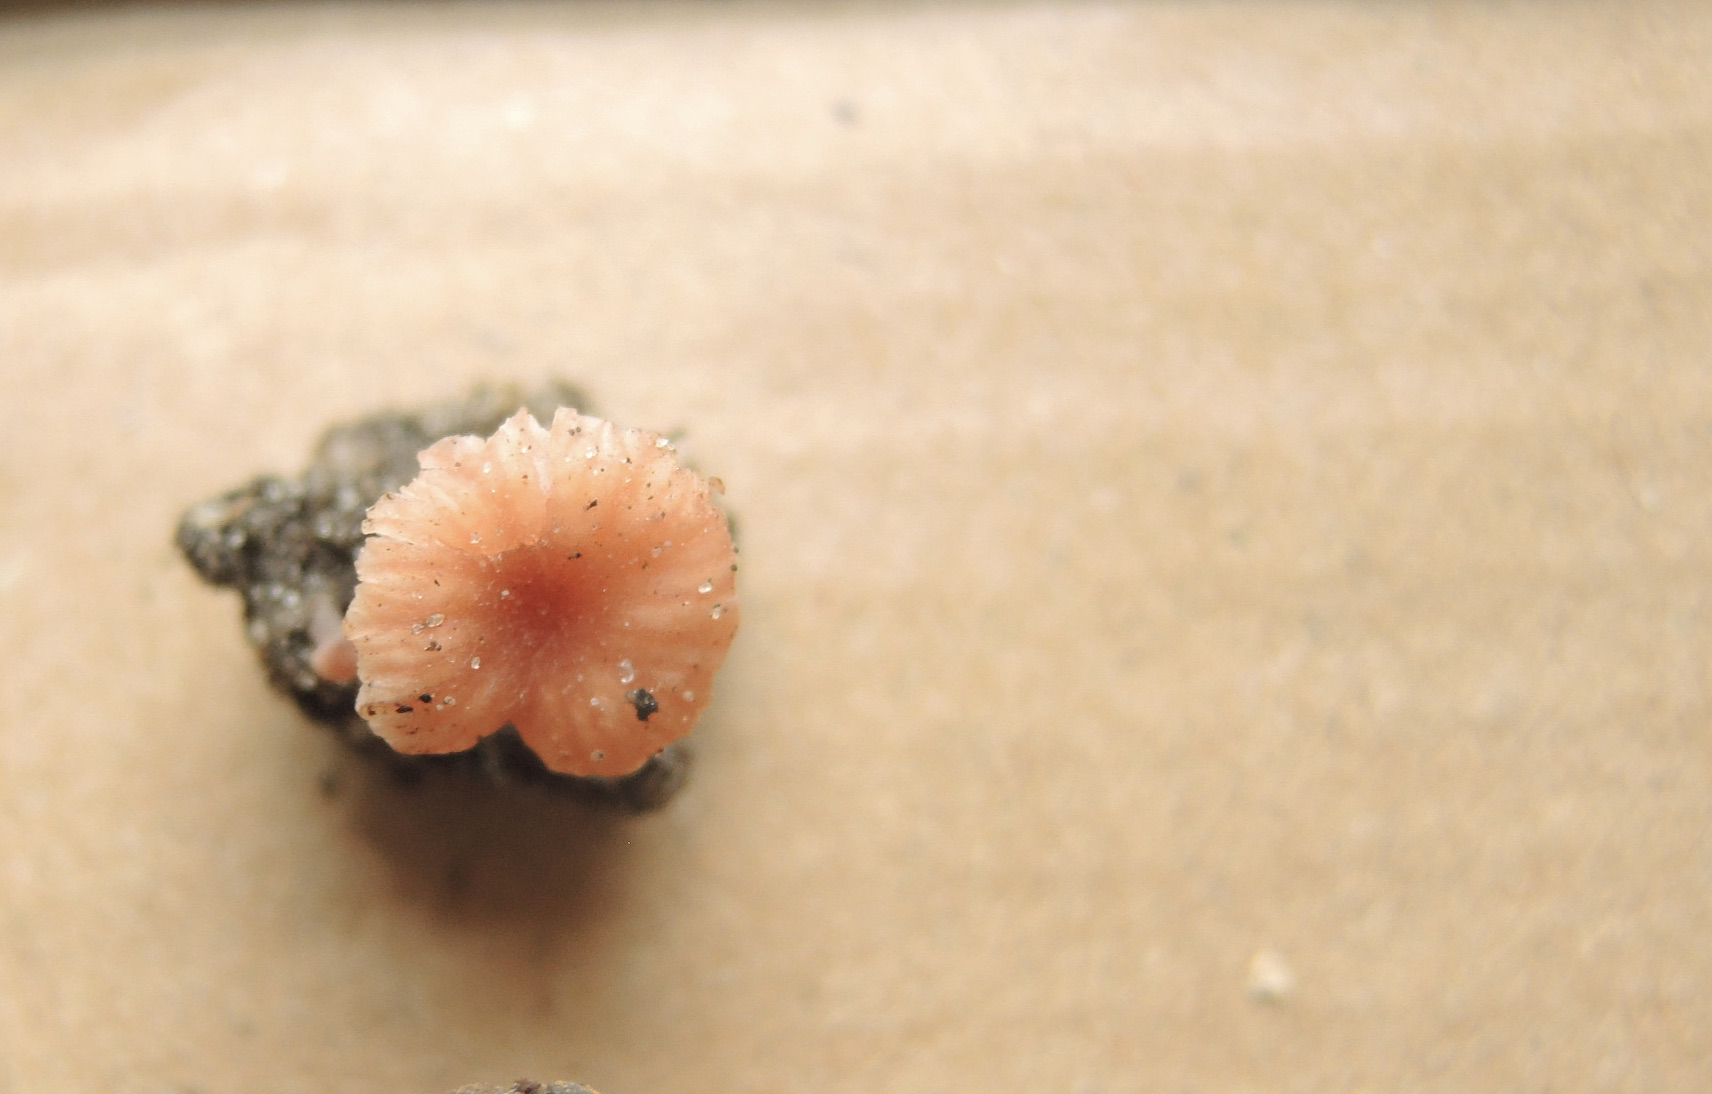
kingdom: Fungi
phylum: Basidiomycota
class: Agaricomycetes
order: Agaricales
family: Hydnangiaceae
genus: Laccaria
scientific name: Laccaria tortilis
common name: krybende ametysthat
